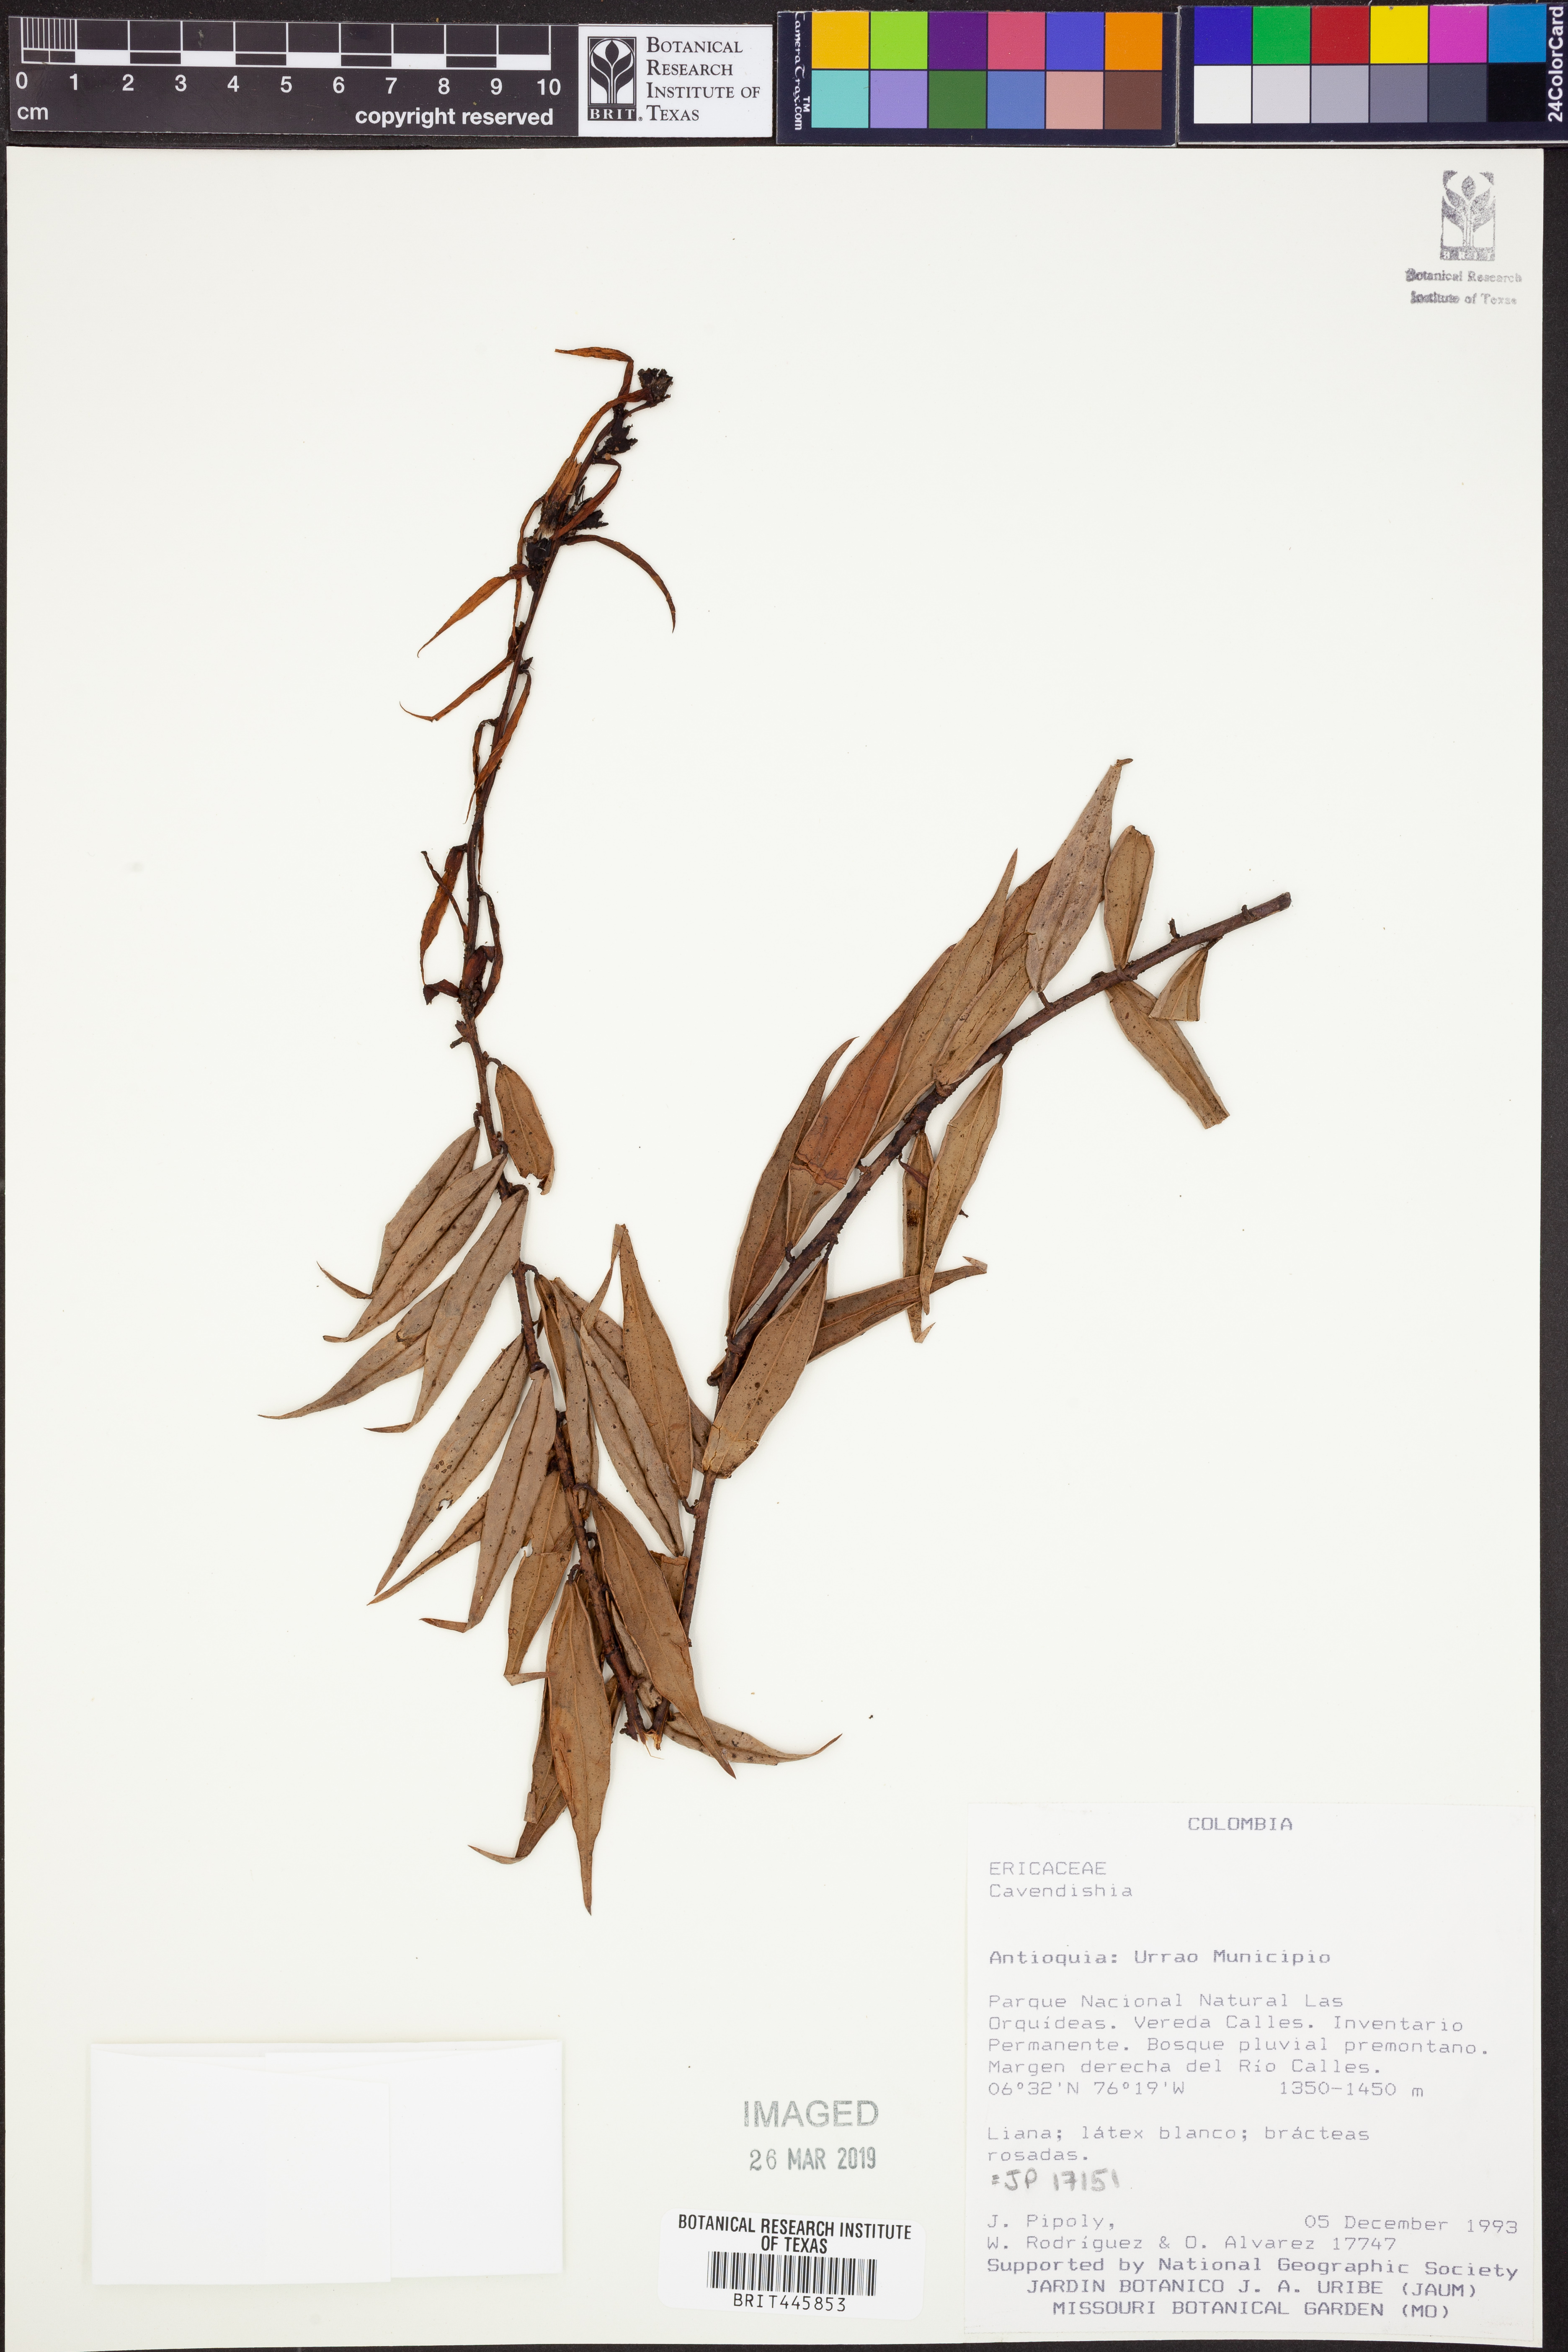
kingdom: Plantae
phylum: Tracheophyta
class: Magnoliopsida
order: Ericales
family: Ericaceae
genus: Cavendishia
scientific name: Cavendishia
